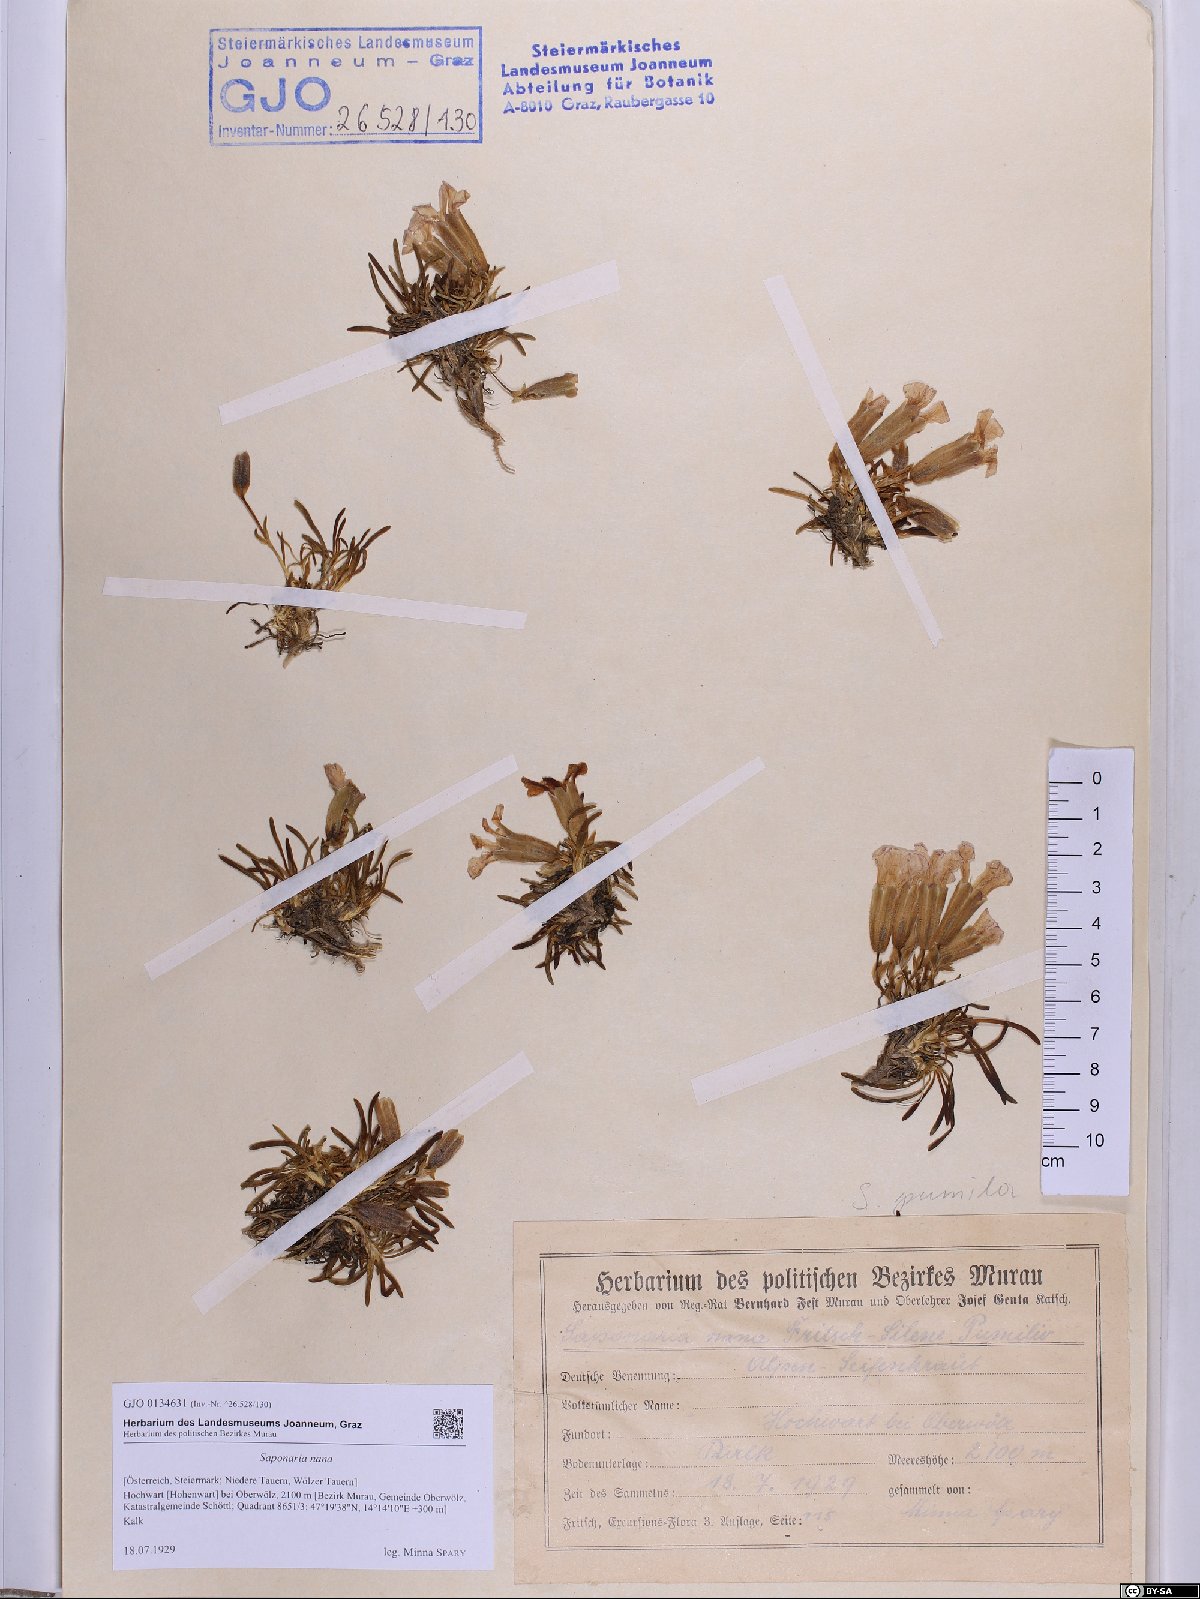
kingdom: Plantae
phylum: Tracheophyta
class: Magnoliopsida
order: Caryophyllales
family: Caryophyllaceae
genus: Saponaria
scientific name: Saponaria pumila
